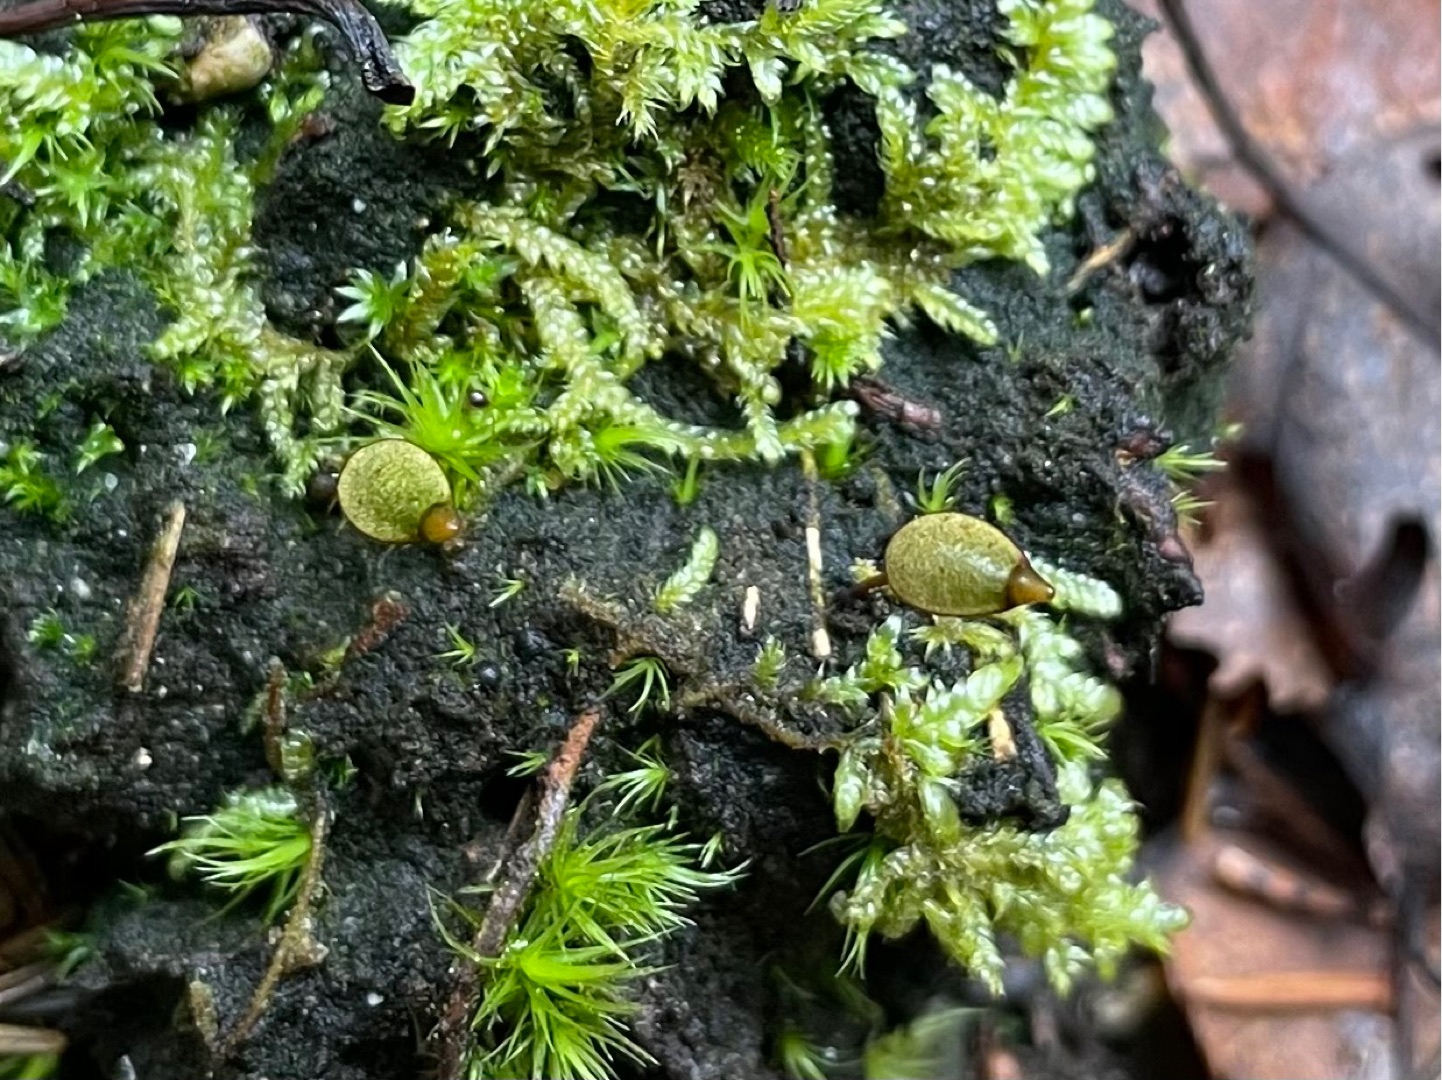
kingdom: Plantae
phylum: Bryophyta
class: Bryopsida
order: Buxbaumiales
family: Buxbaumiaceae
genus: Buxbaumia
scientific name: Buxbaumia aphylla
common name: Rundkapslet buxbaumia
